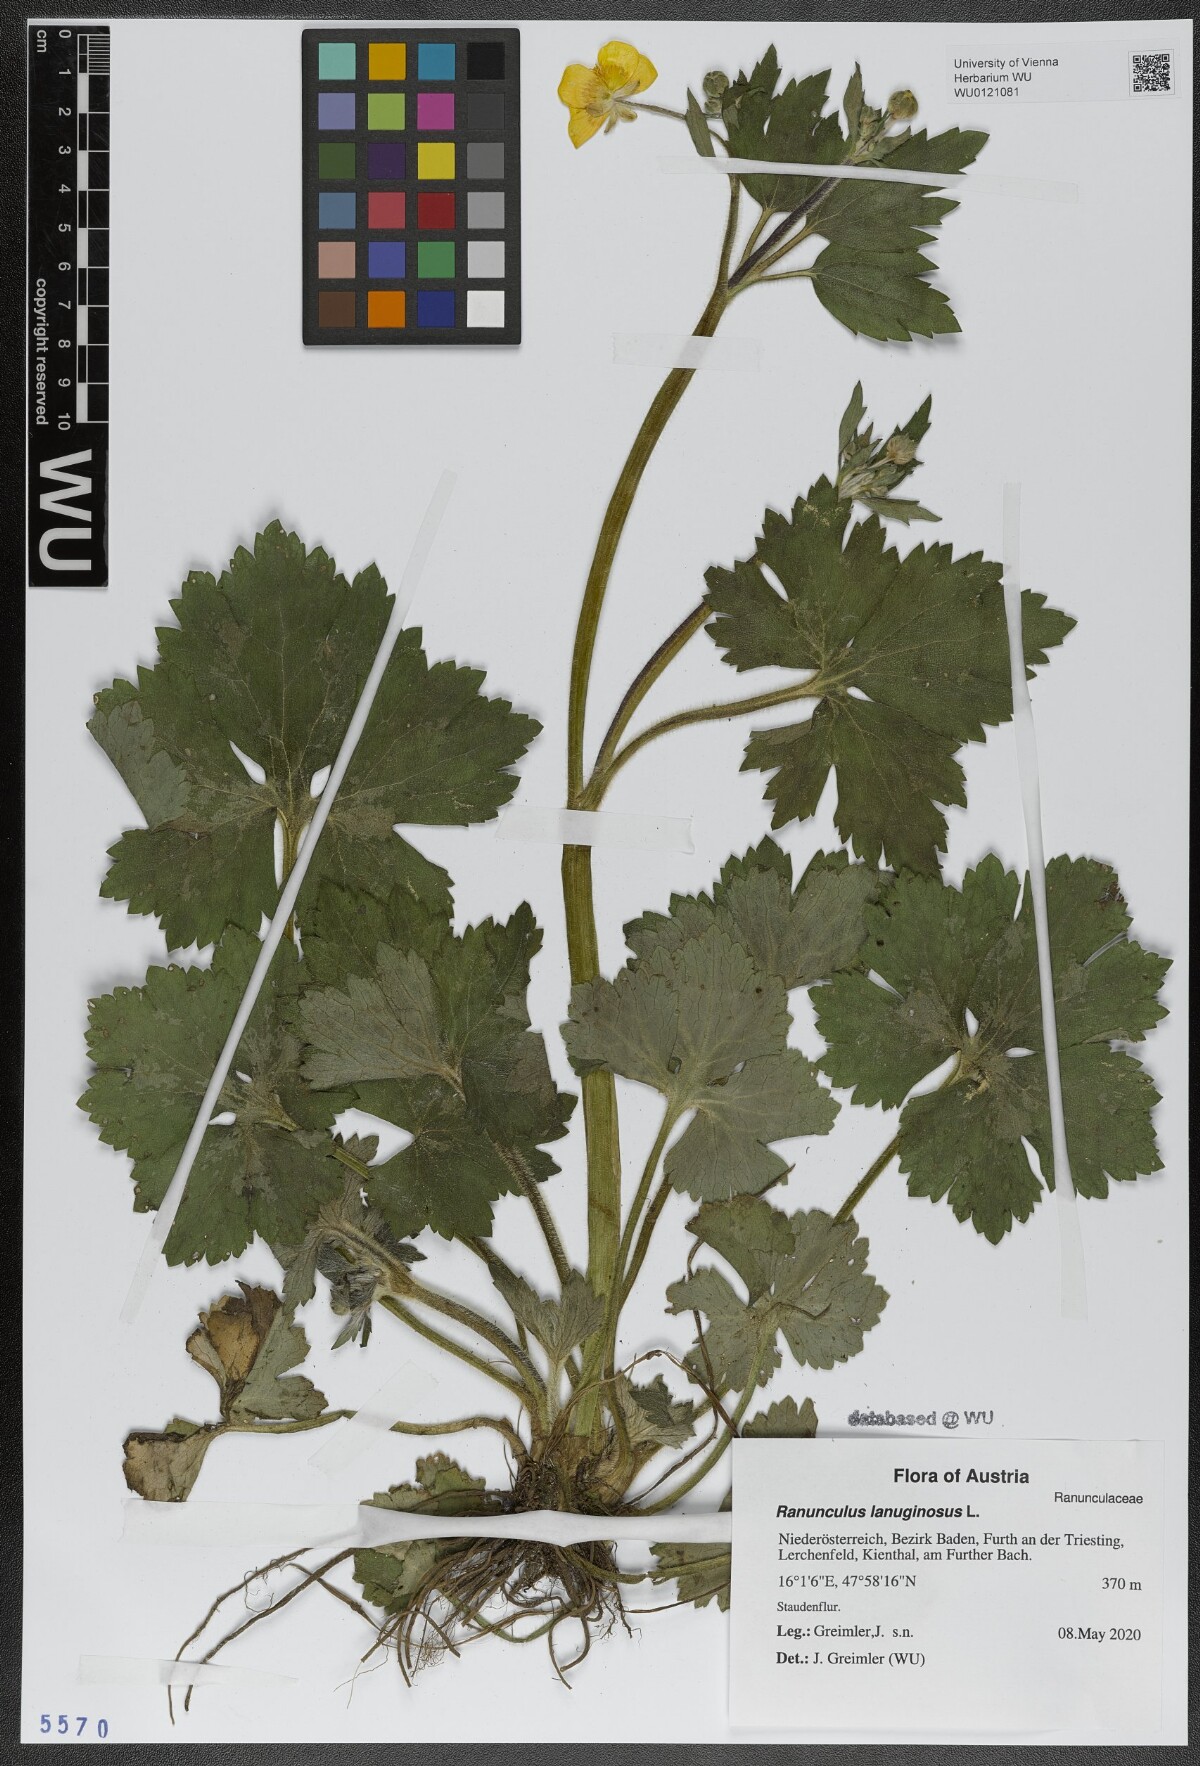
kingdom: Plantae
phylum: Tracheophyta
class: Magnoliopsida
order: Ranunculales
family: Ranunculaceae
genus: Ranunculus
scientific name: Ranunculus lanuginosus
